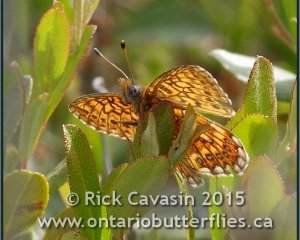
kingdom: Animalia
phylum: Arthropoda
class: Insecta
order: Lepidoptera
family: Nymphalidae
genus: Boloria
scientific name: Boloria eunomia
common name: Bog Fritillary
